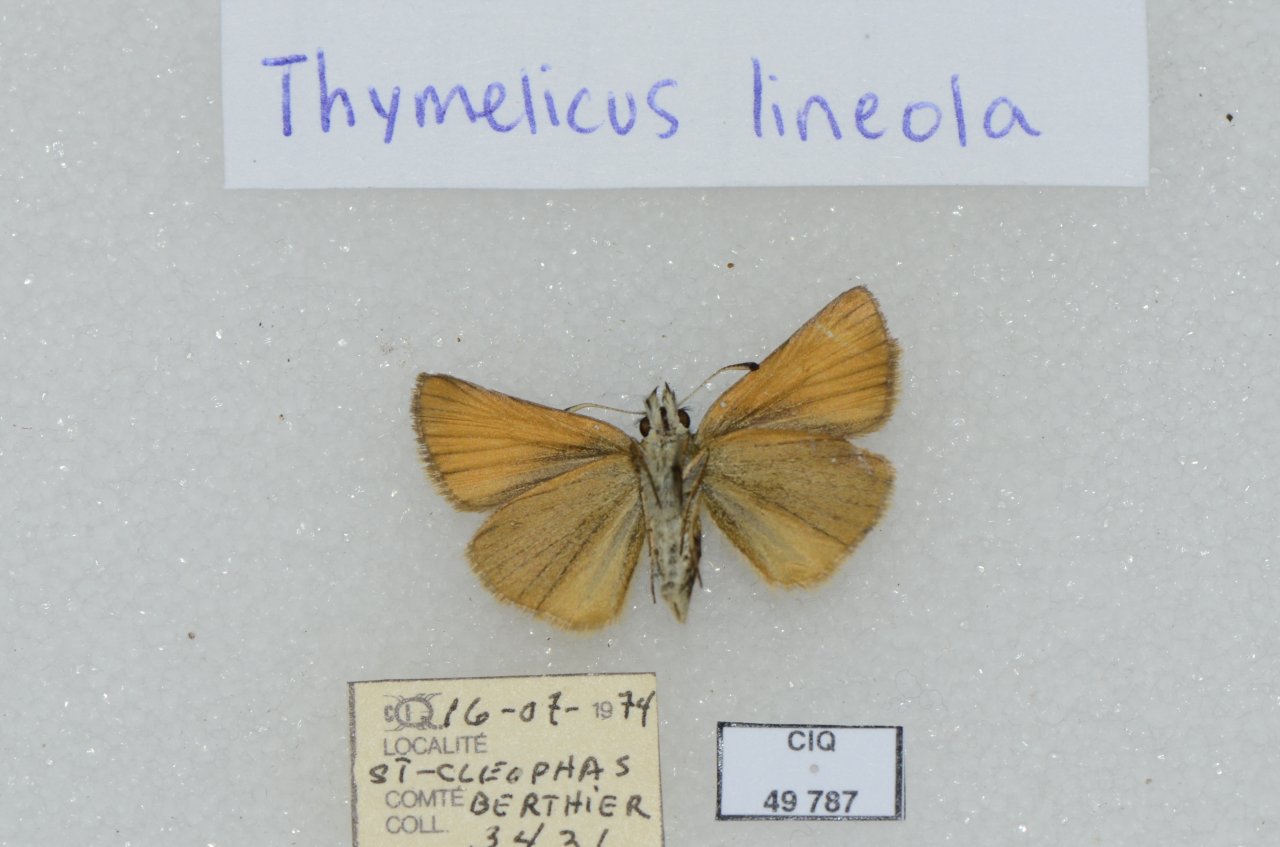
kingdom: Animalia
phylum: Arthropoda
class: Insecta
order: Lepidoptera
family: Hesperiidae
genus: Thymelicus
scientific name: Thymelicus lineola
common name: European Skipper
